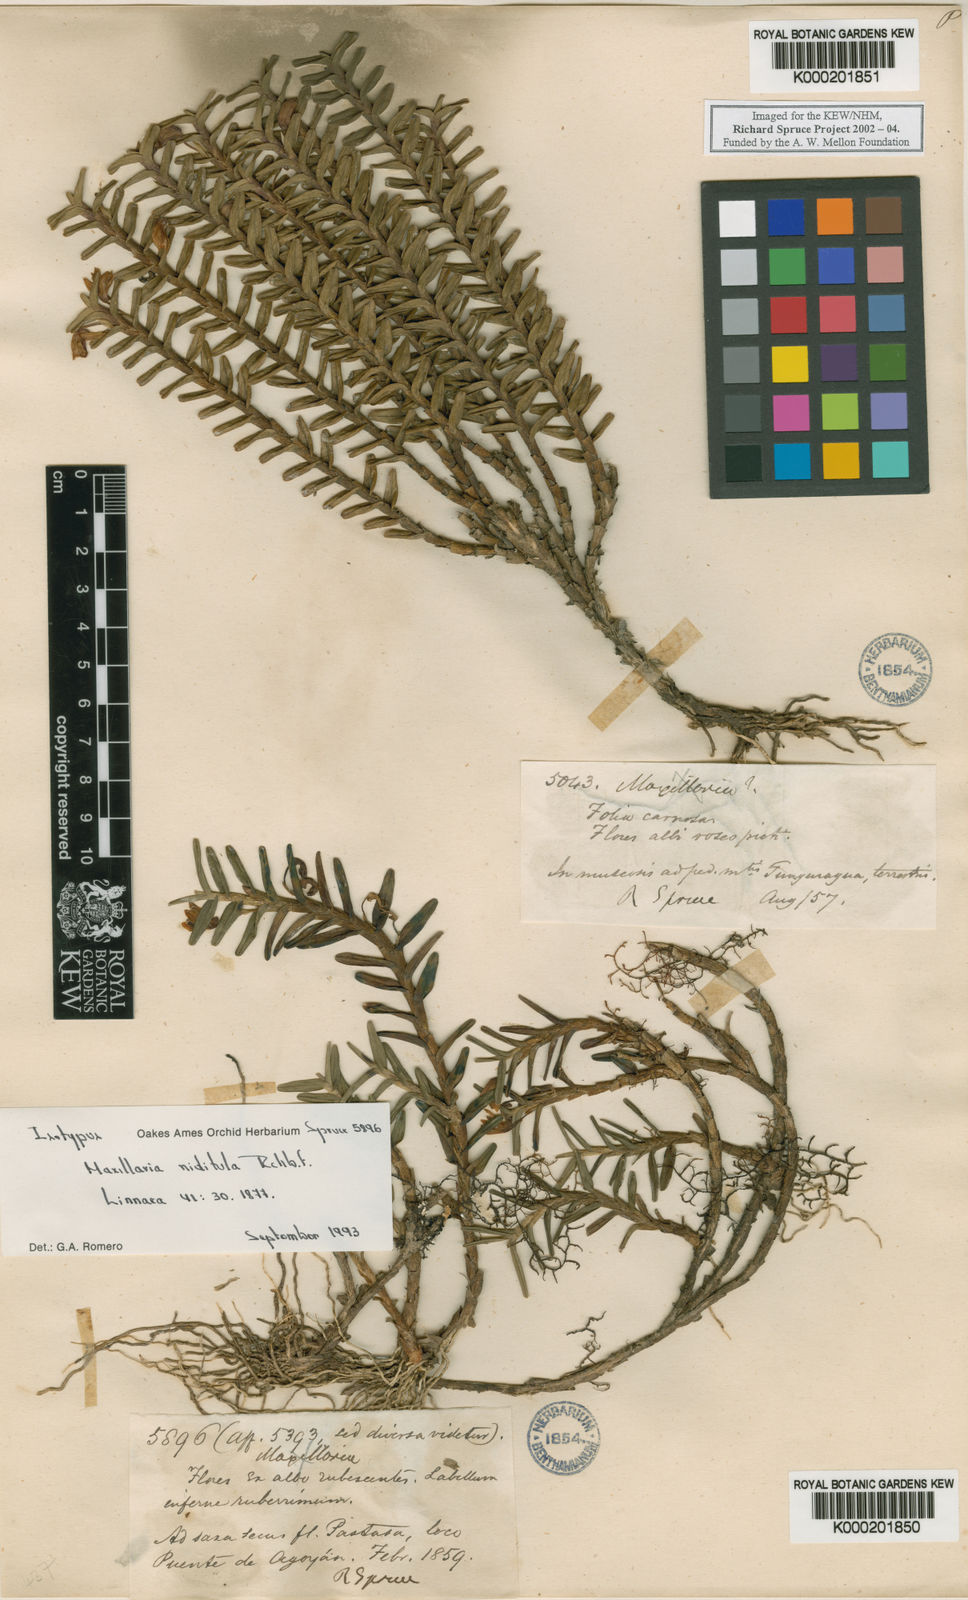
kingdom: Plantae
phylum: Tracheophyta
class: Liliopsida
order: Asparagales
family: Orchidaceae
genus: Maxillaria
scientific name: Maxillaria
